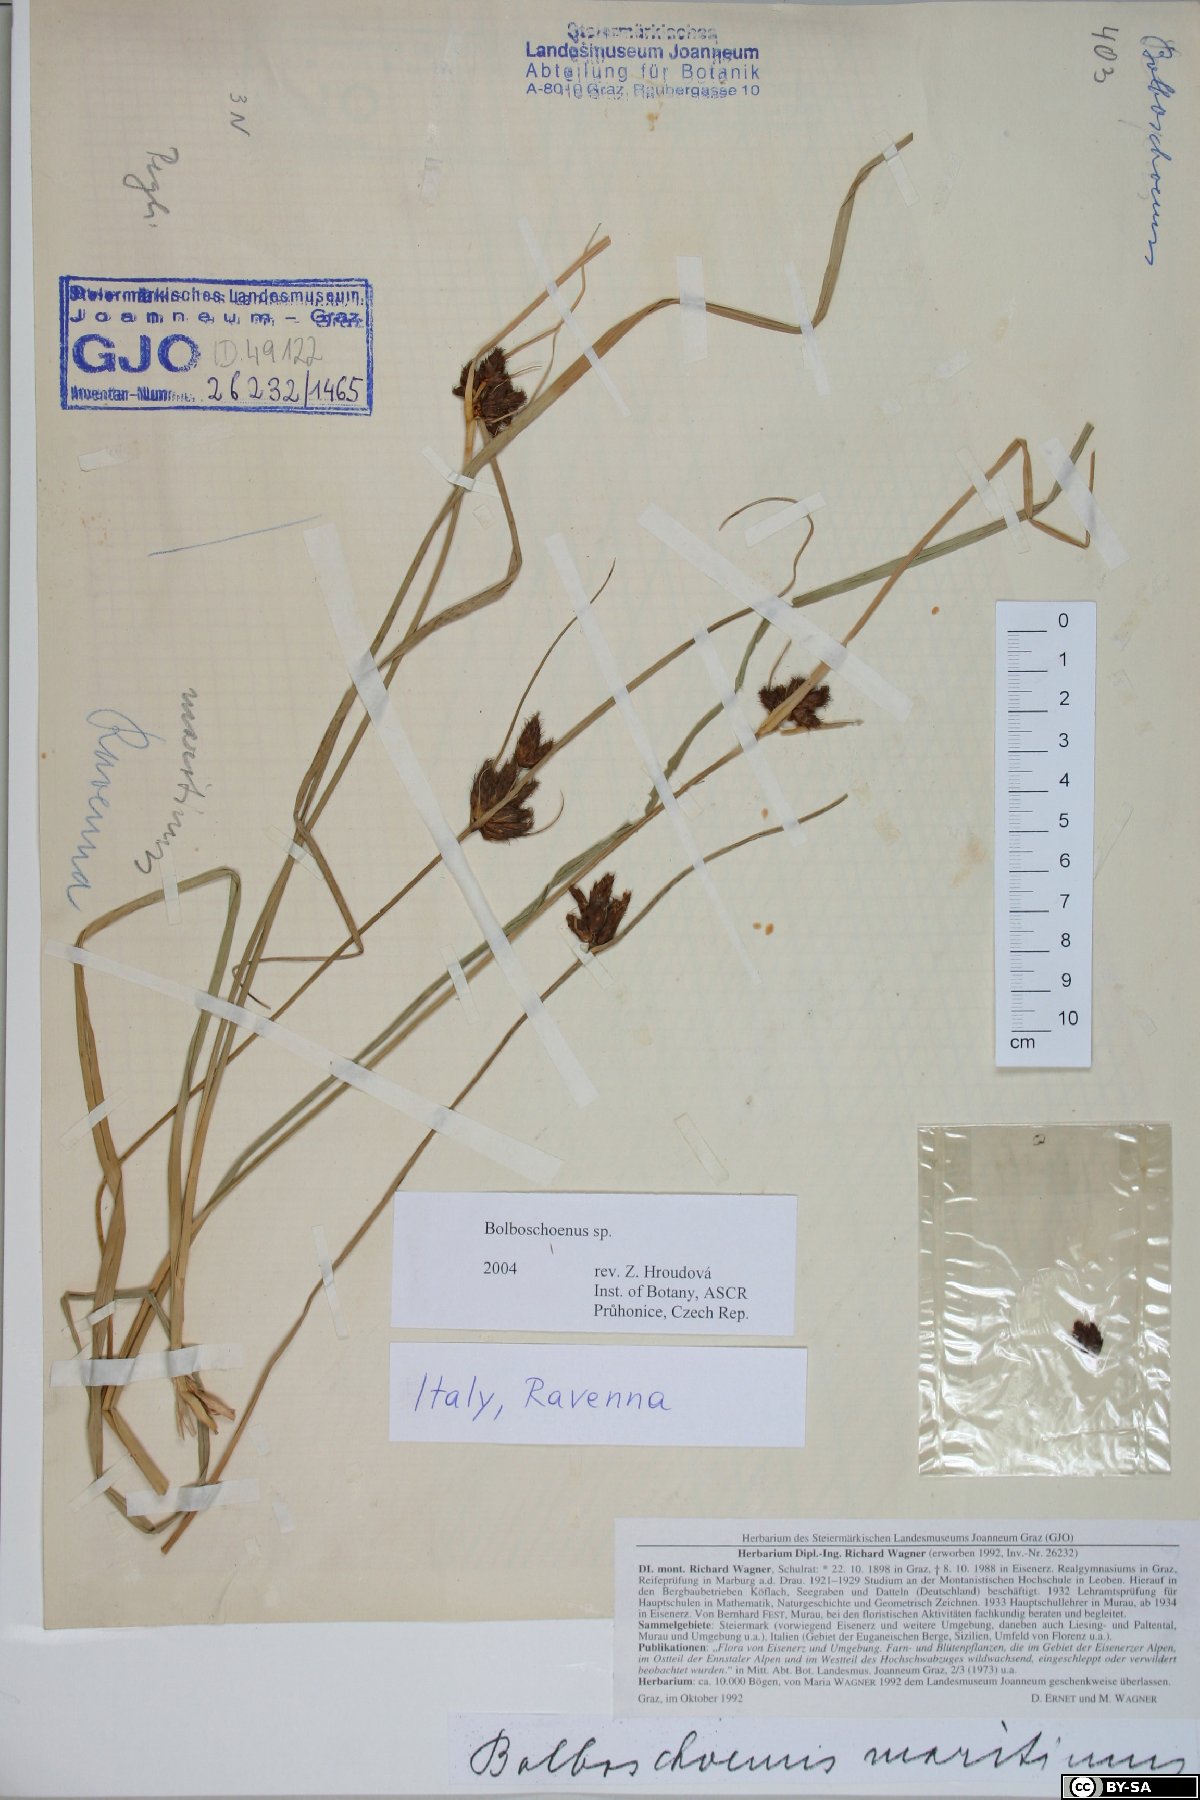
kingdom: Plantae
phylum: Tracheophyta
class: Liliopsida
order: Poales
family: Cyperaceae
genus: Bolboschoenus
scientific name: Bolboschoenus
